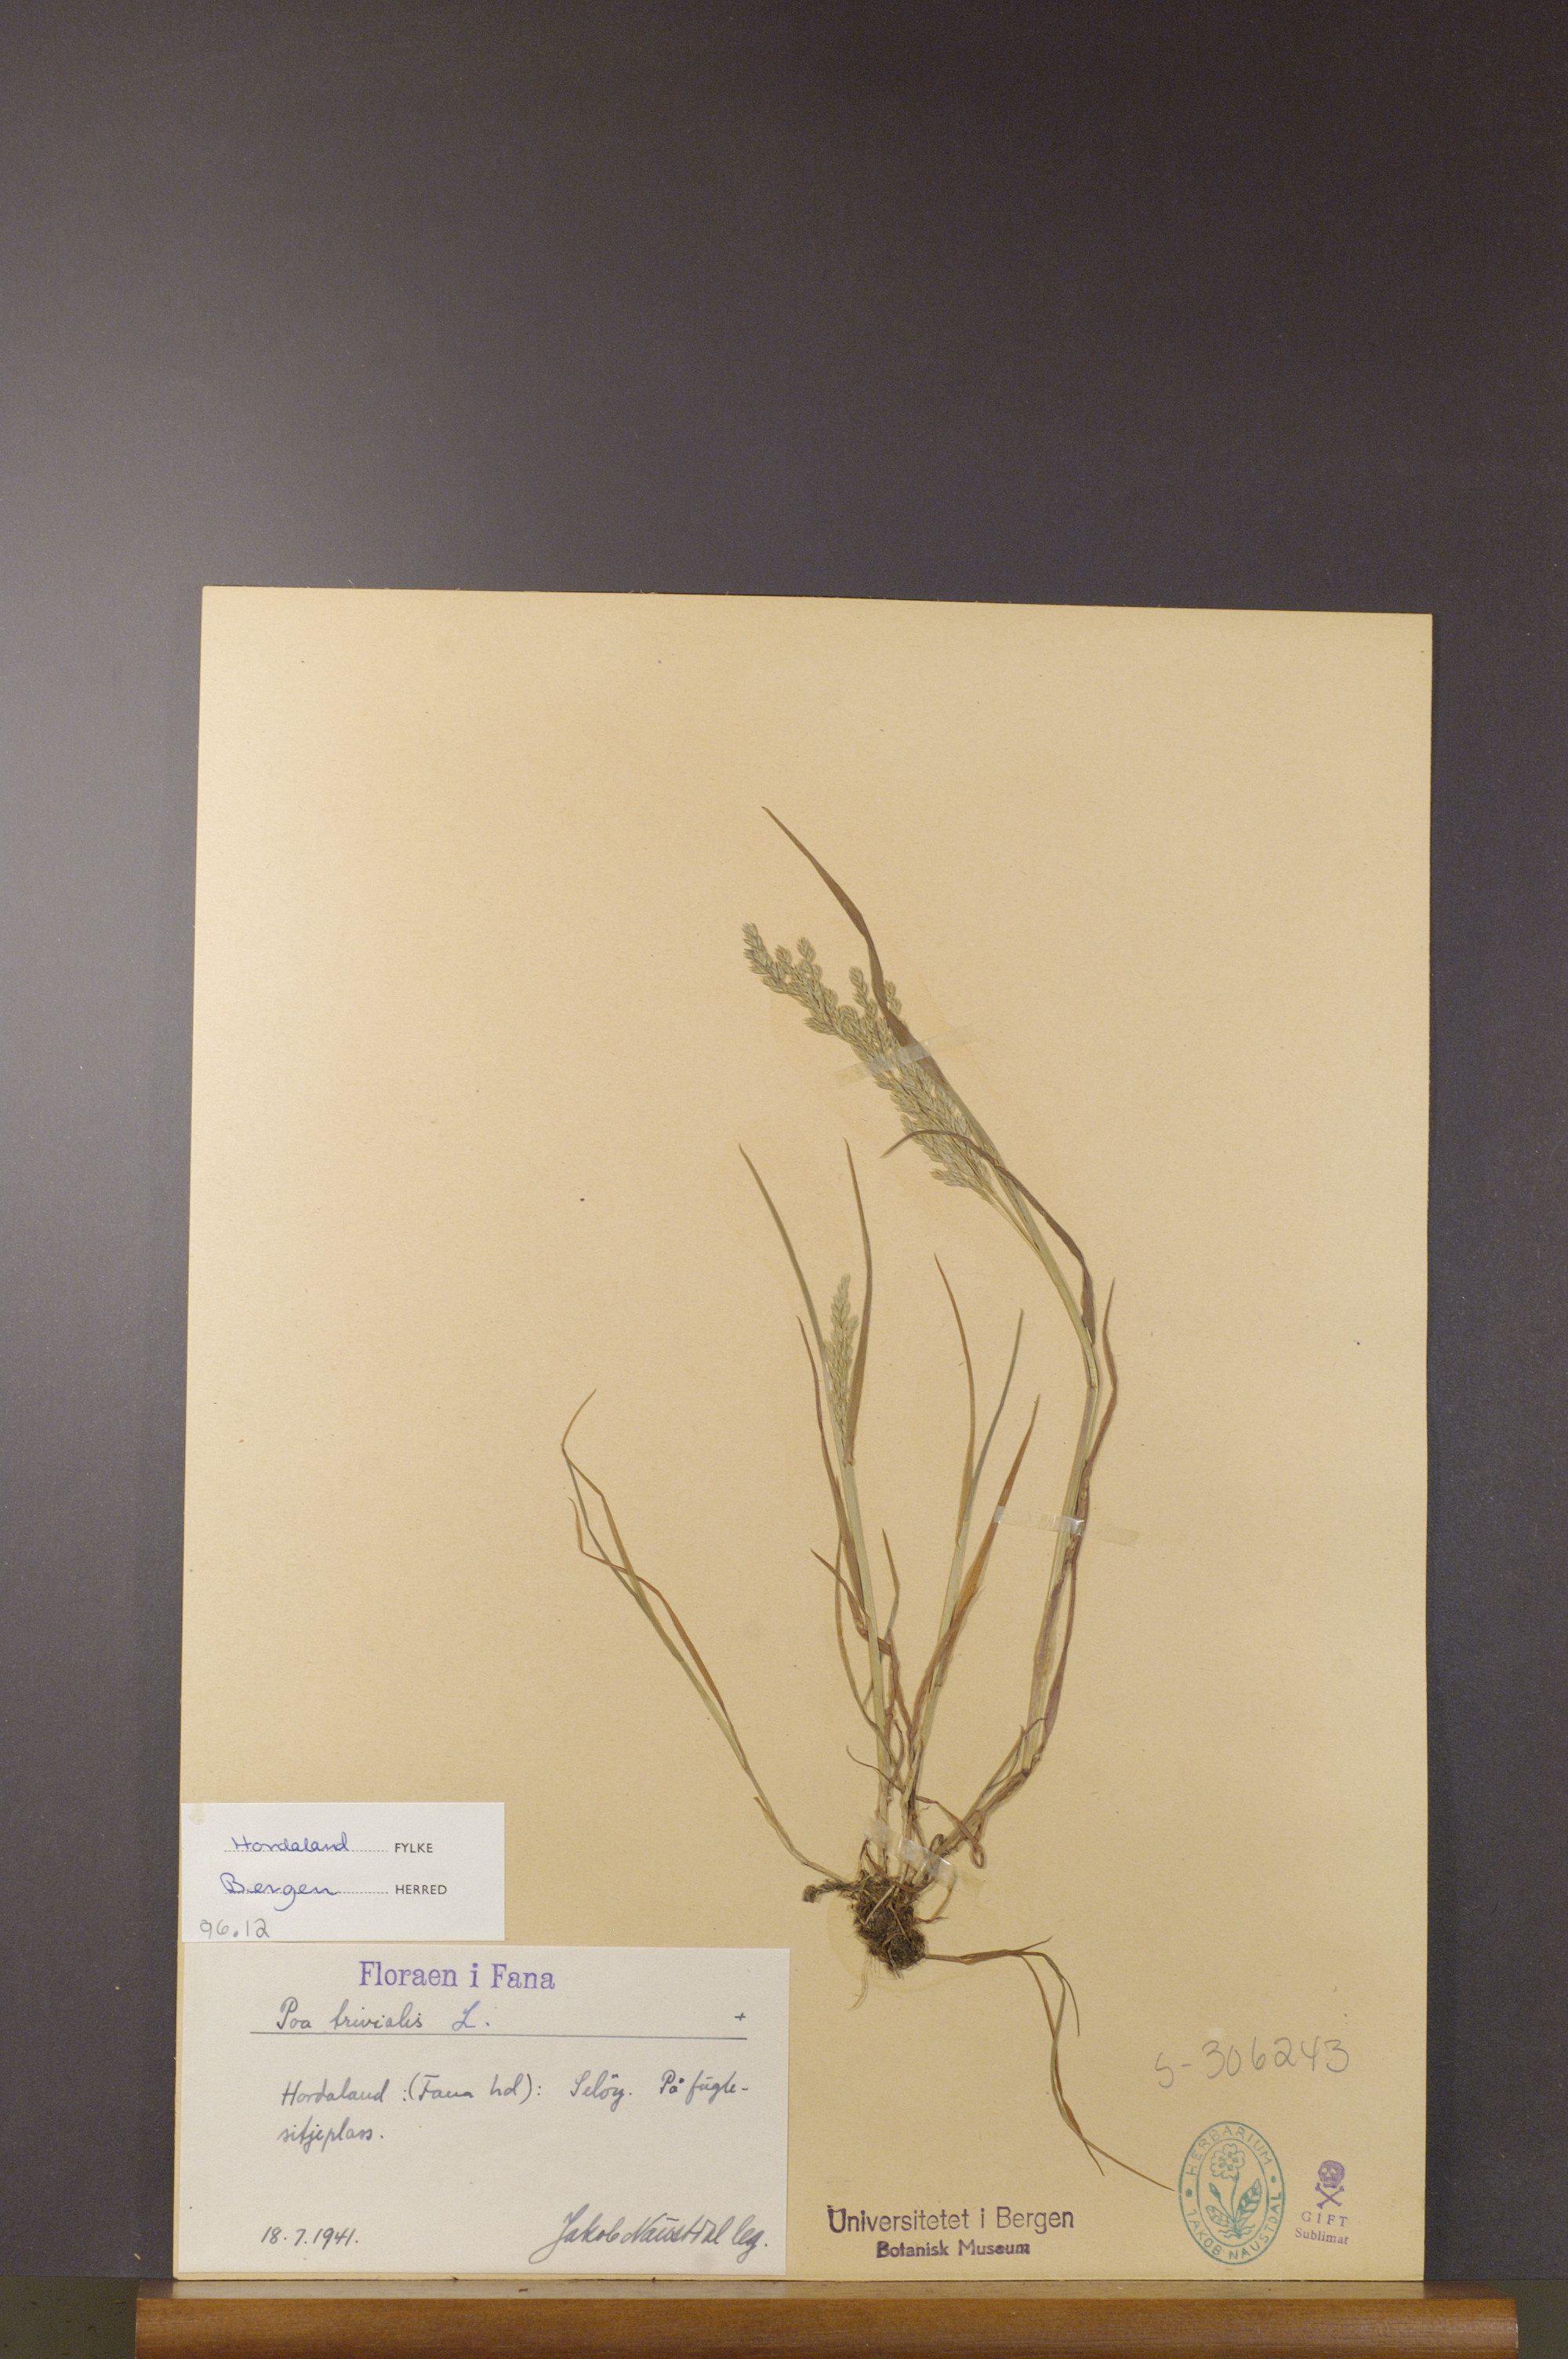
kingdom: Plantae
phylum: Tracheophyta
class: Liliopsida
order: Poales
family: Poaceae
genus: Poa
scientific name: Poa trivialis
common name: Rough bluegrass
